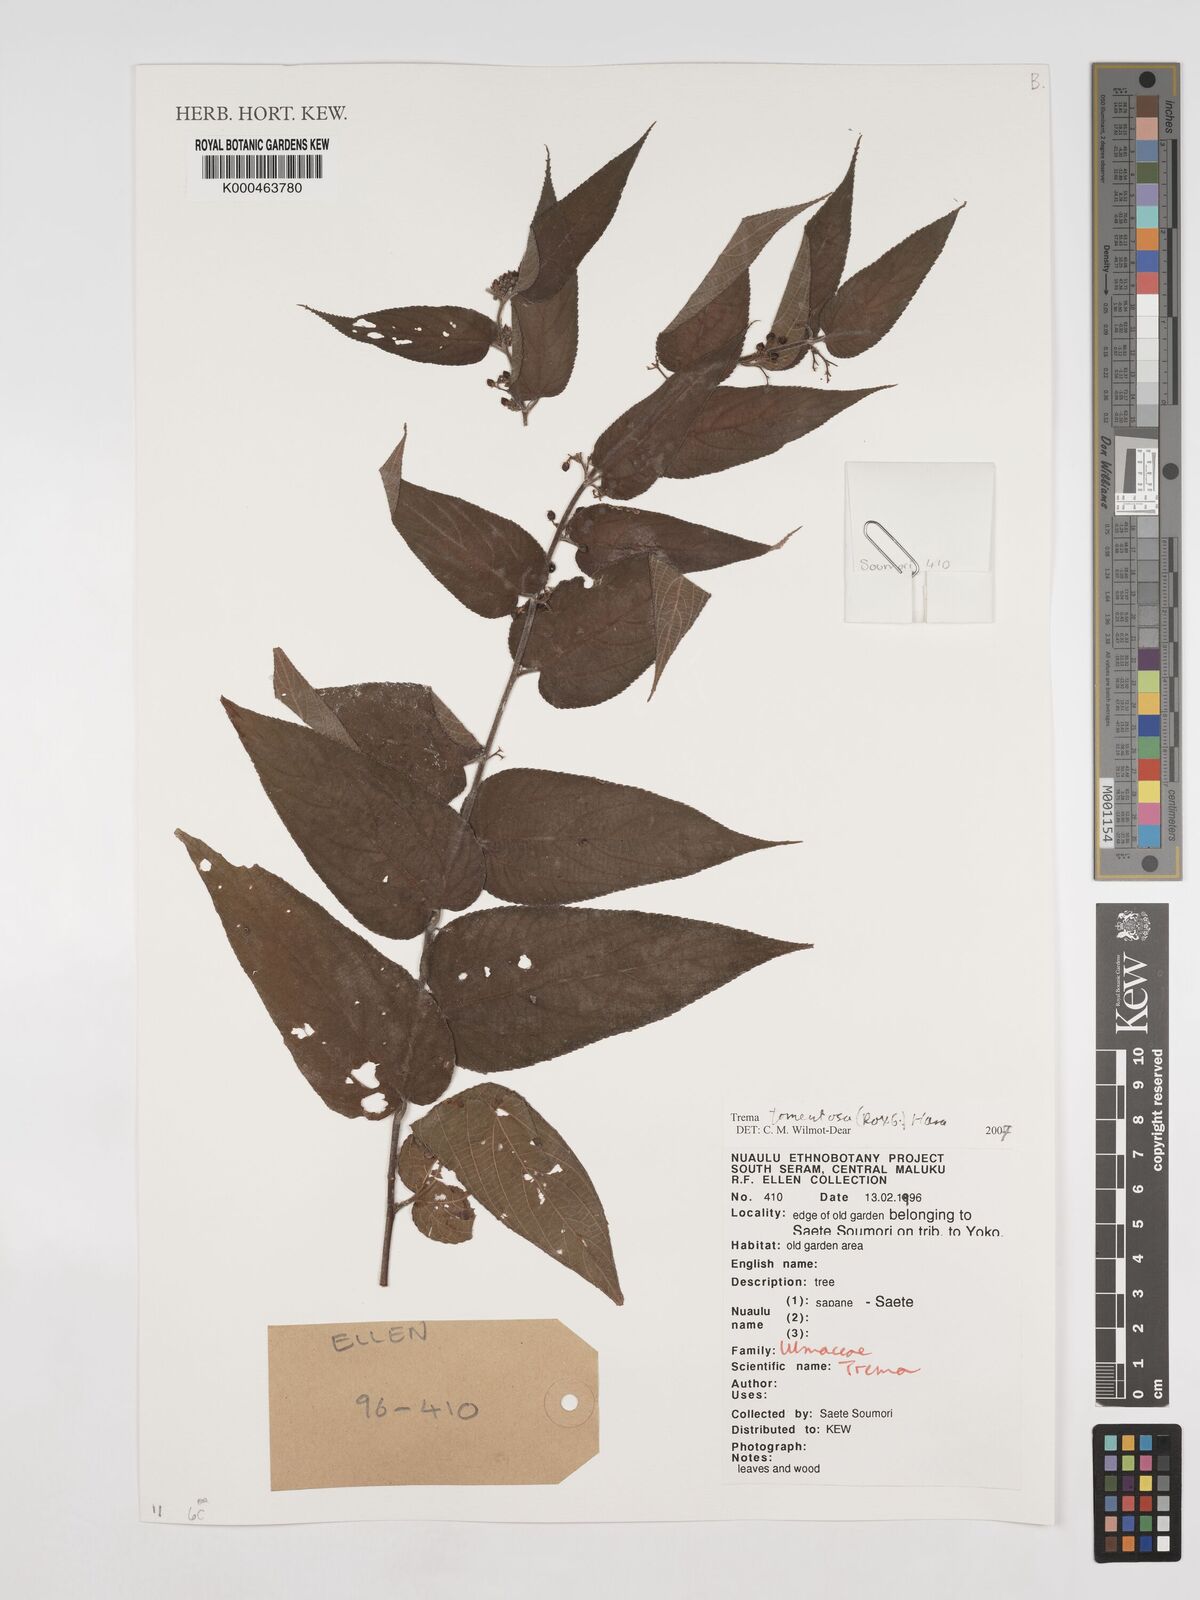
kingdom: Plantae
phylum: Tracheophyta
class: Magnoliopsida
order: Rosales
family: Cannabaceae
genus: Trema
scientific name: Trema tomentosum
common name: Peach-leaf-poisonbush
